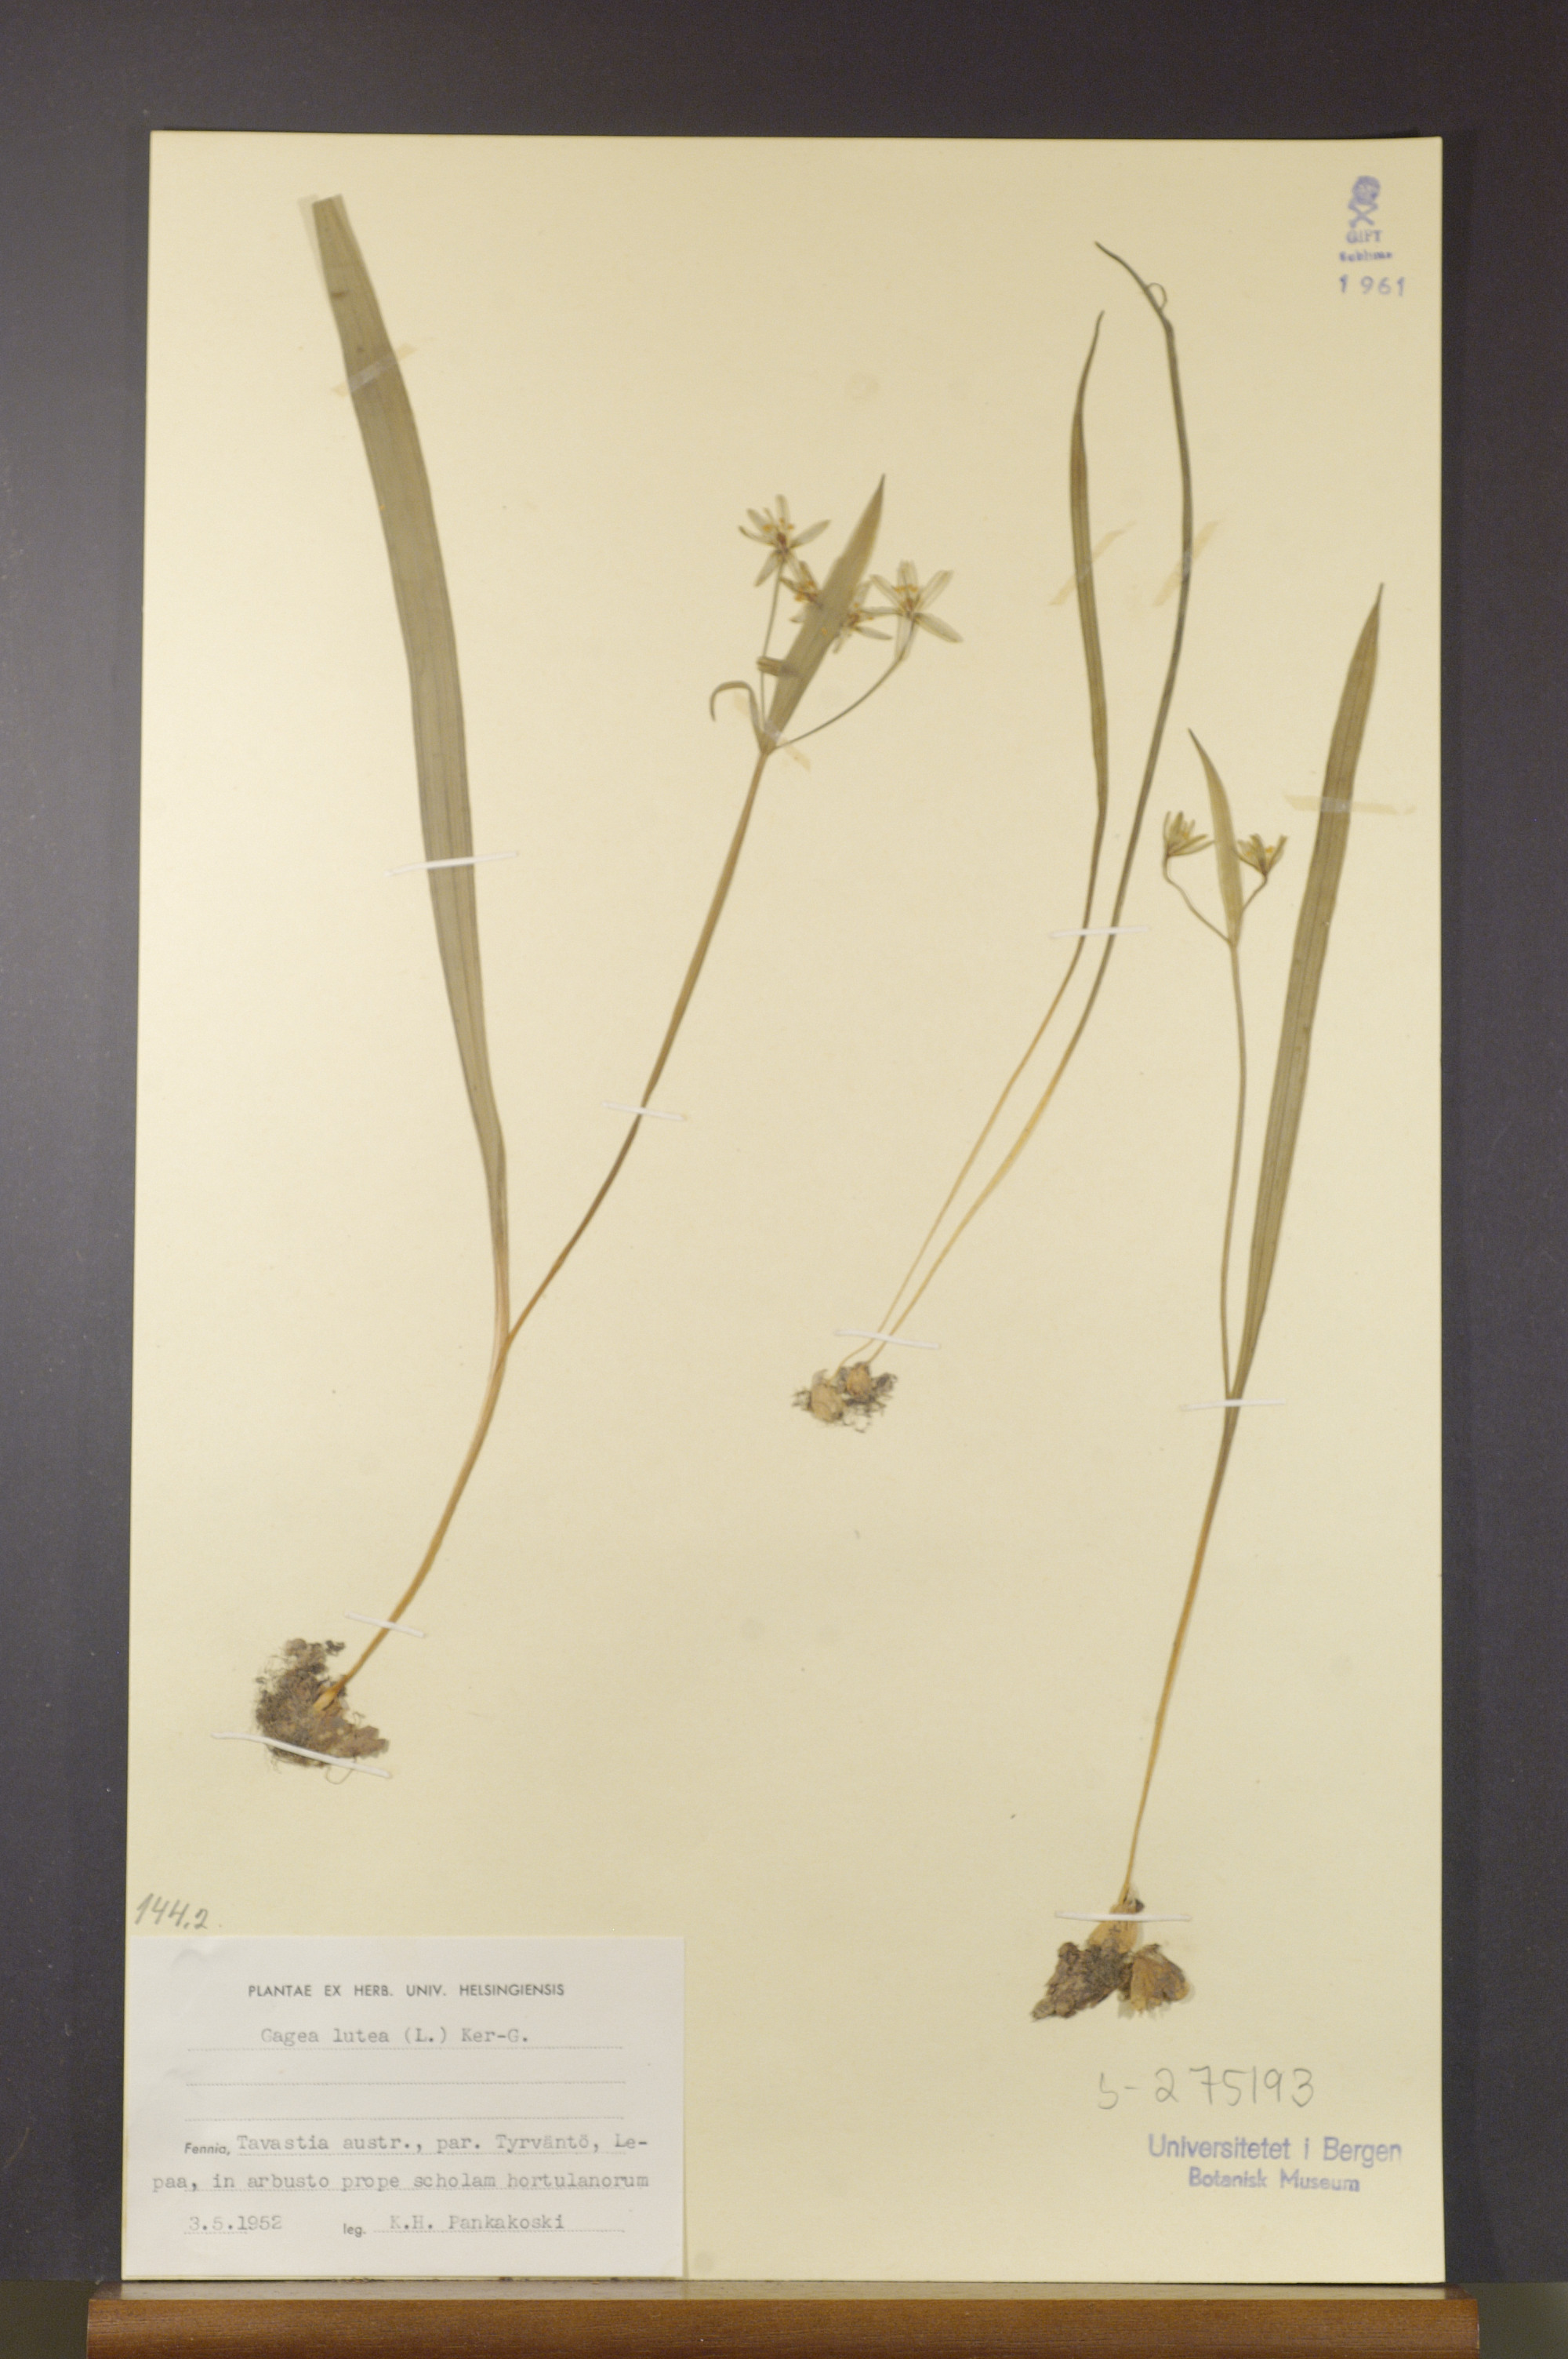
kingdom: Plantae
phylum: Tracheophyta
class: Liliopsida
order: Liliales
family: Liliaceae
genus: Gagea
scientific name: Gagea lutea
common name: Yellow star-of-bethlehem
